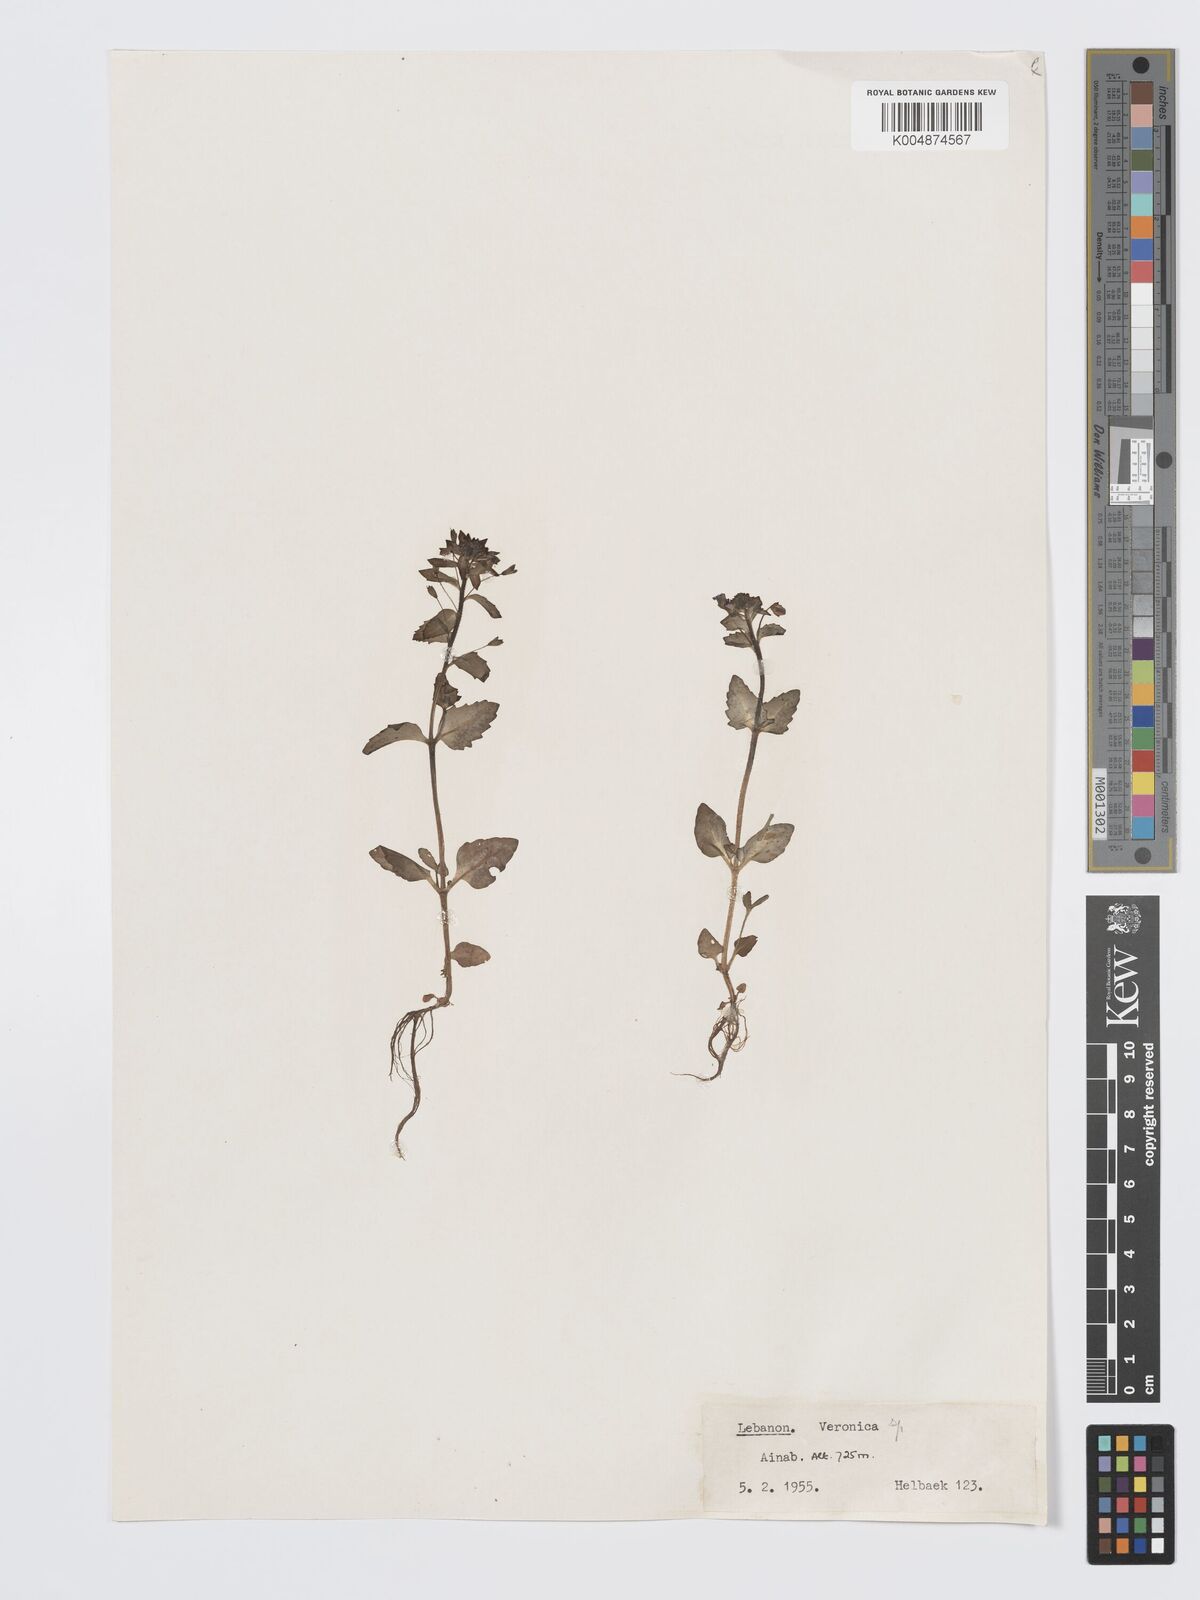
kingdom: Plantae
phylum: Tracheophyta
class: Magnoliopsida
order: Lamiales
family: Plantaginaceae
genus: Veronica
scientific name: Veronica
